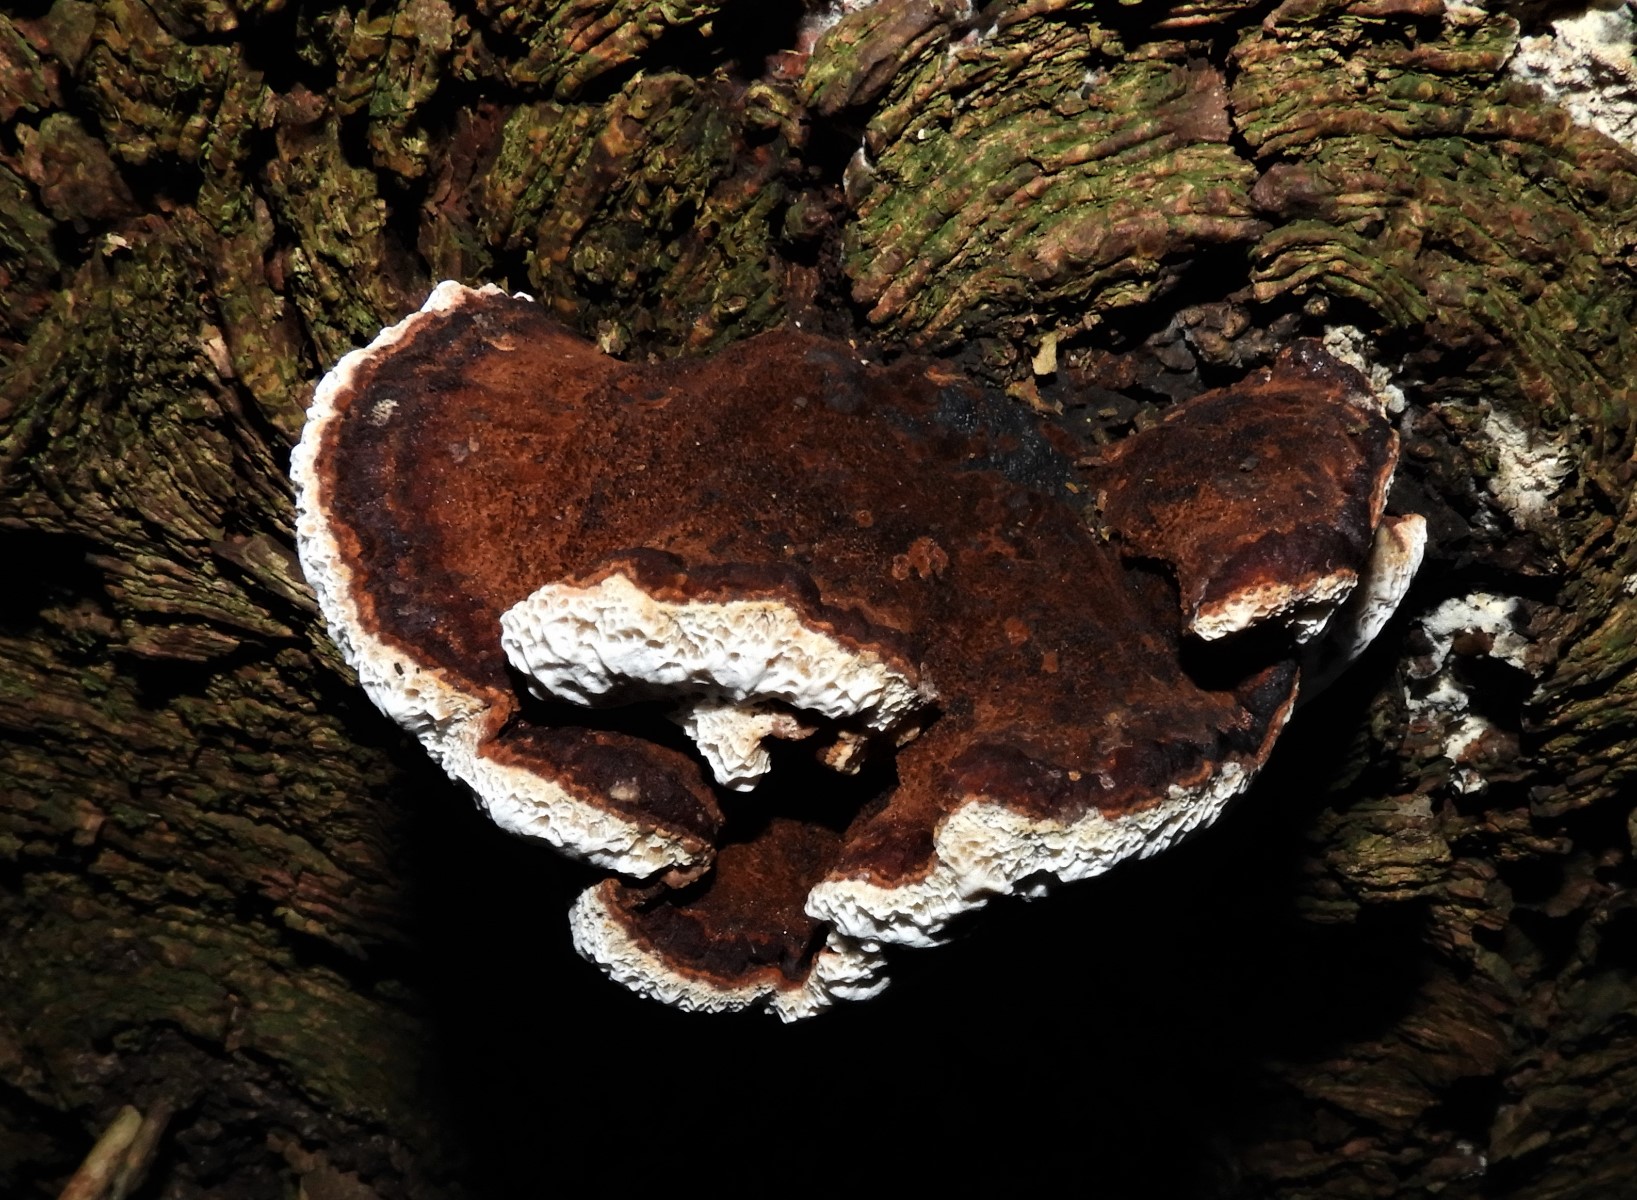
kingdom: Fungi
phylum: Basidiomycota
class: Agaricomycetes
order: Polyporales
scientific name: Polyporales
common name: poresvampordenen
